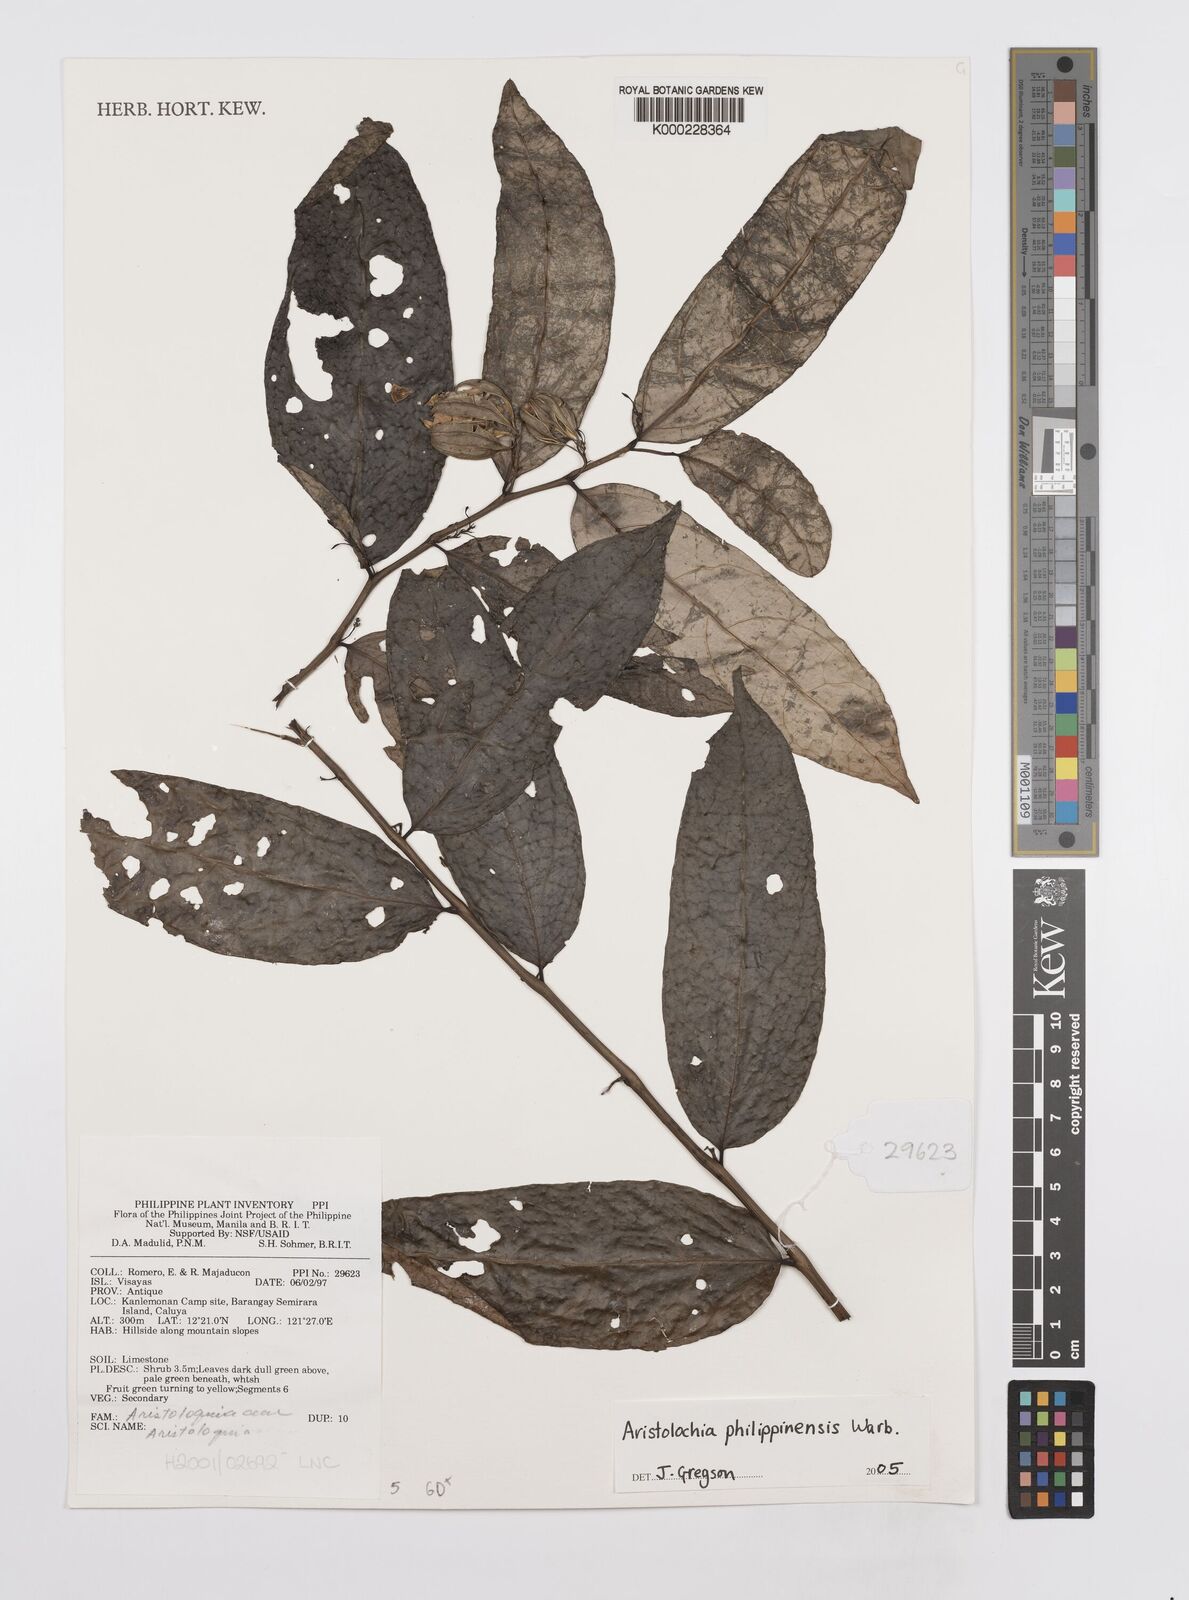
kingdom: Plantae
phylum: Tracheophyta
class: Magnoliopsida
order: Piperales
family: Aristolochiaceae
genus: Aristolochia
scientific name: Aristolochia philippinensis
